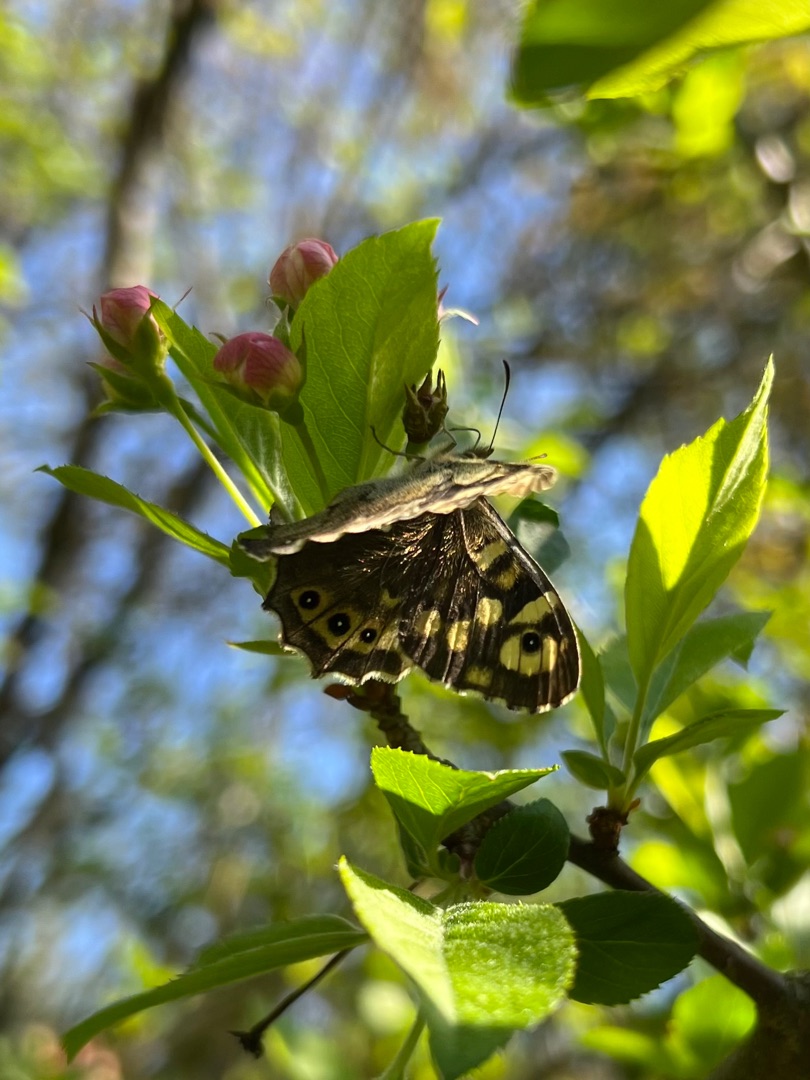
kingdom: Animalia
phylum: Arthropoda
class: Insecta
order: Lepidoptera
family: Nymphalidae
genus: Pararge
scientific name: Pararge aegeria
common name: Skovrandøje
